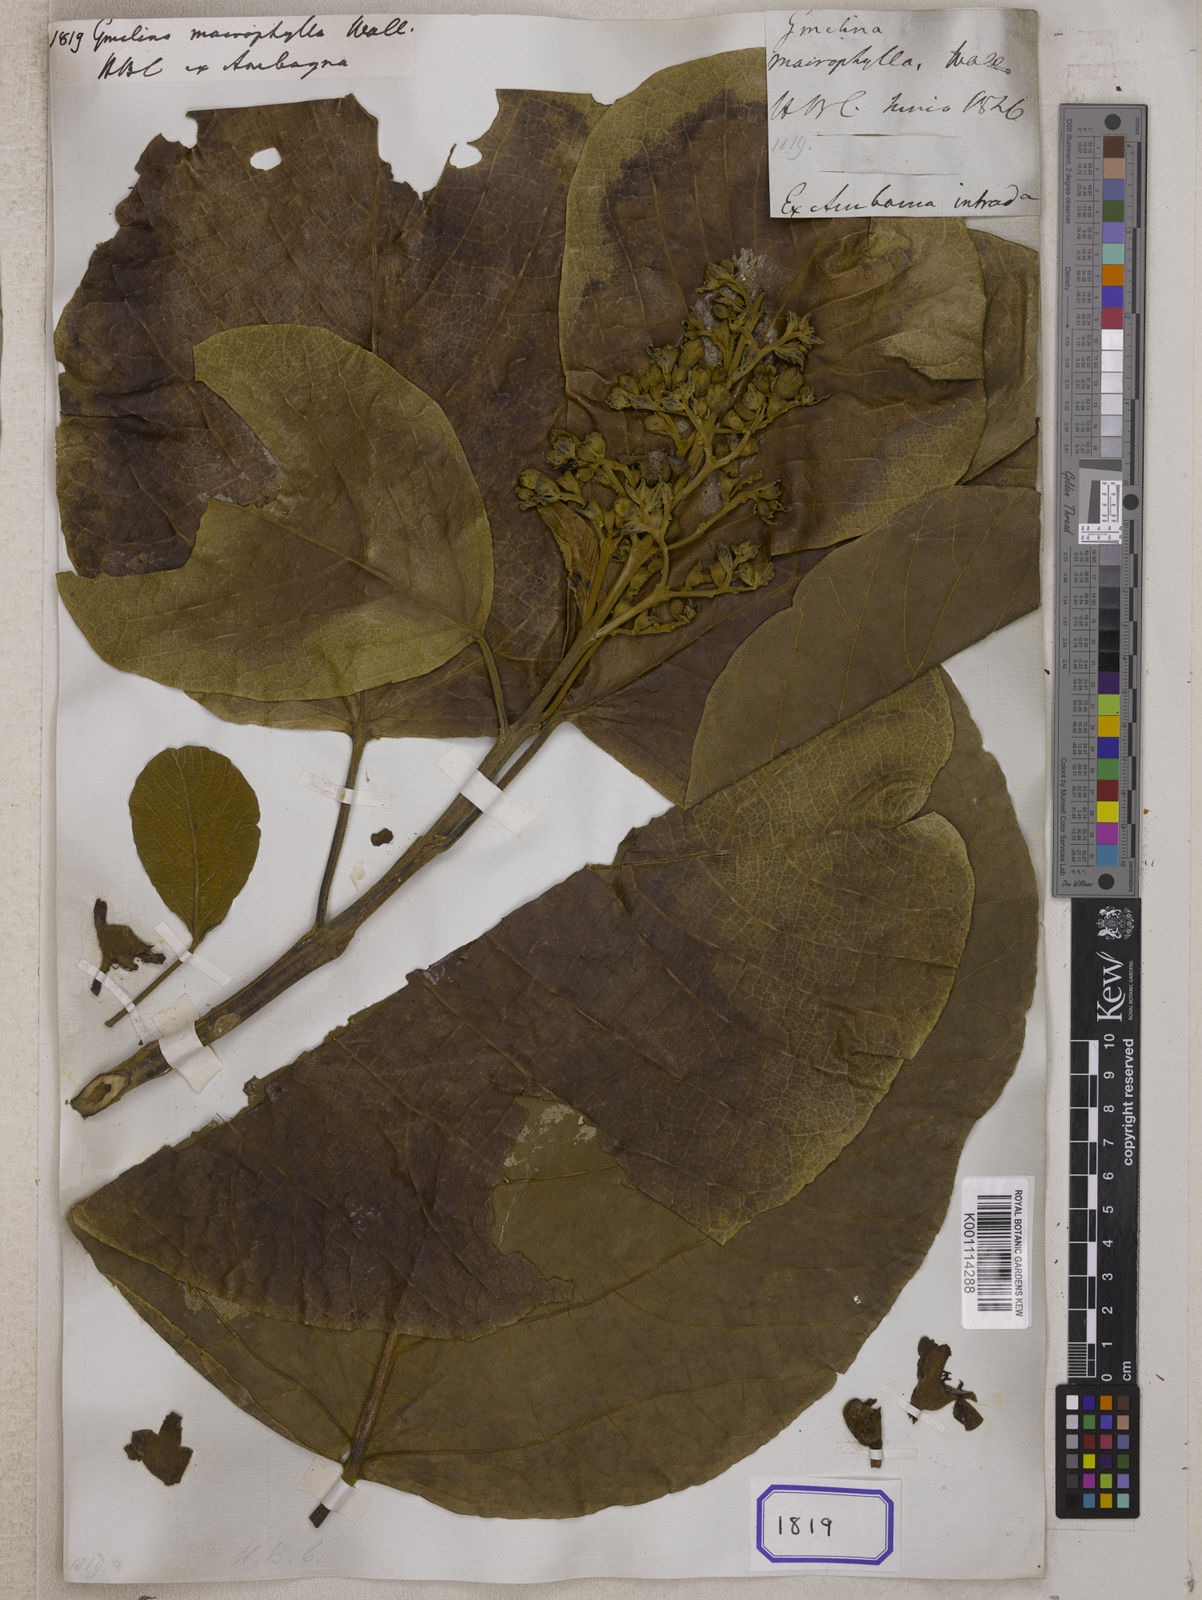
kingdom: Plantae
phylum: Tracheophyta
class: Magnoliopsida
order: Lamiales
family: Lamiaceae
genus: Gmelina
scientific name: Gmelina
